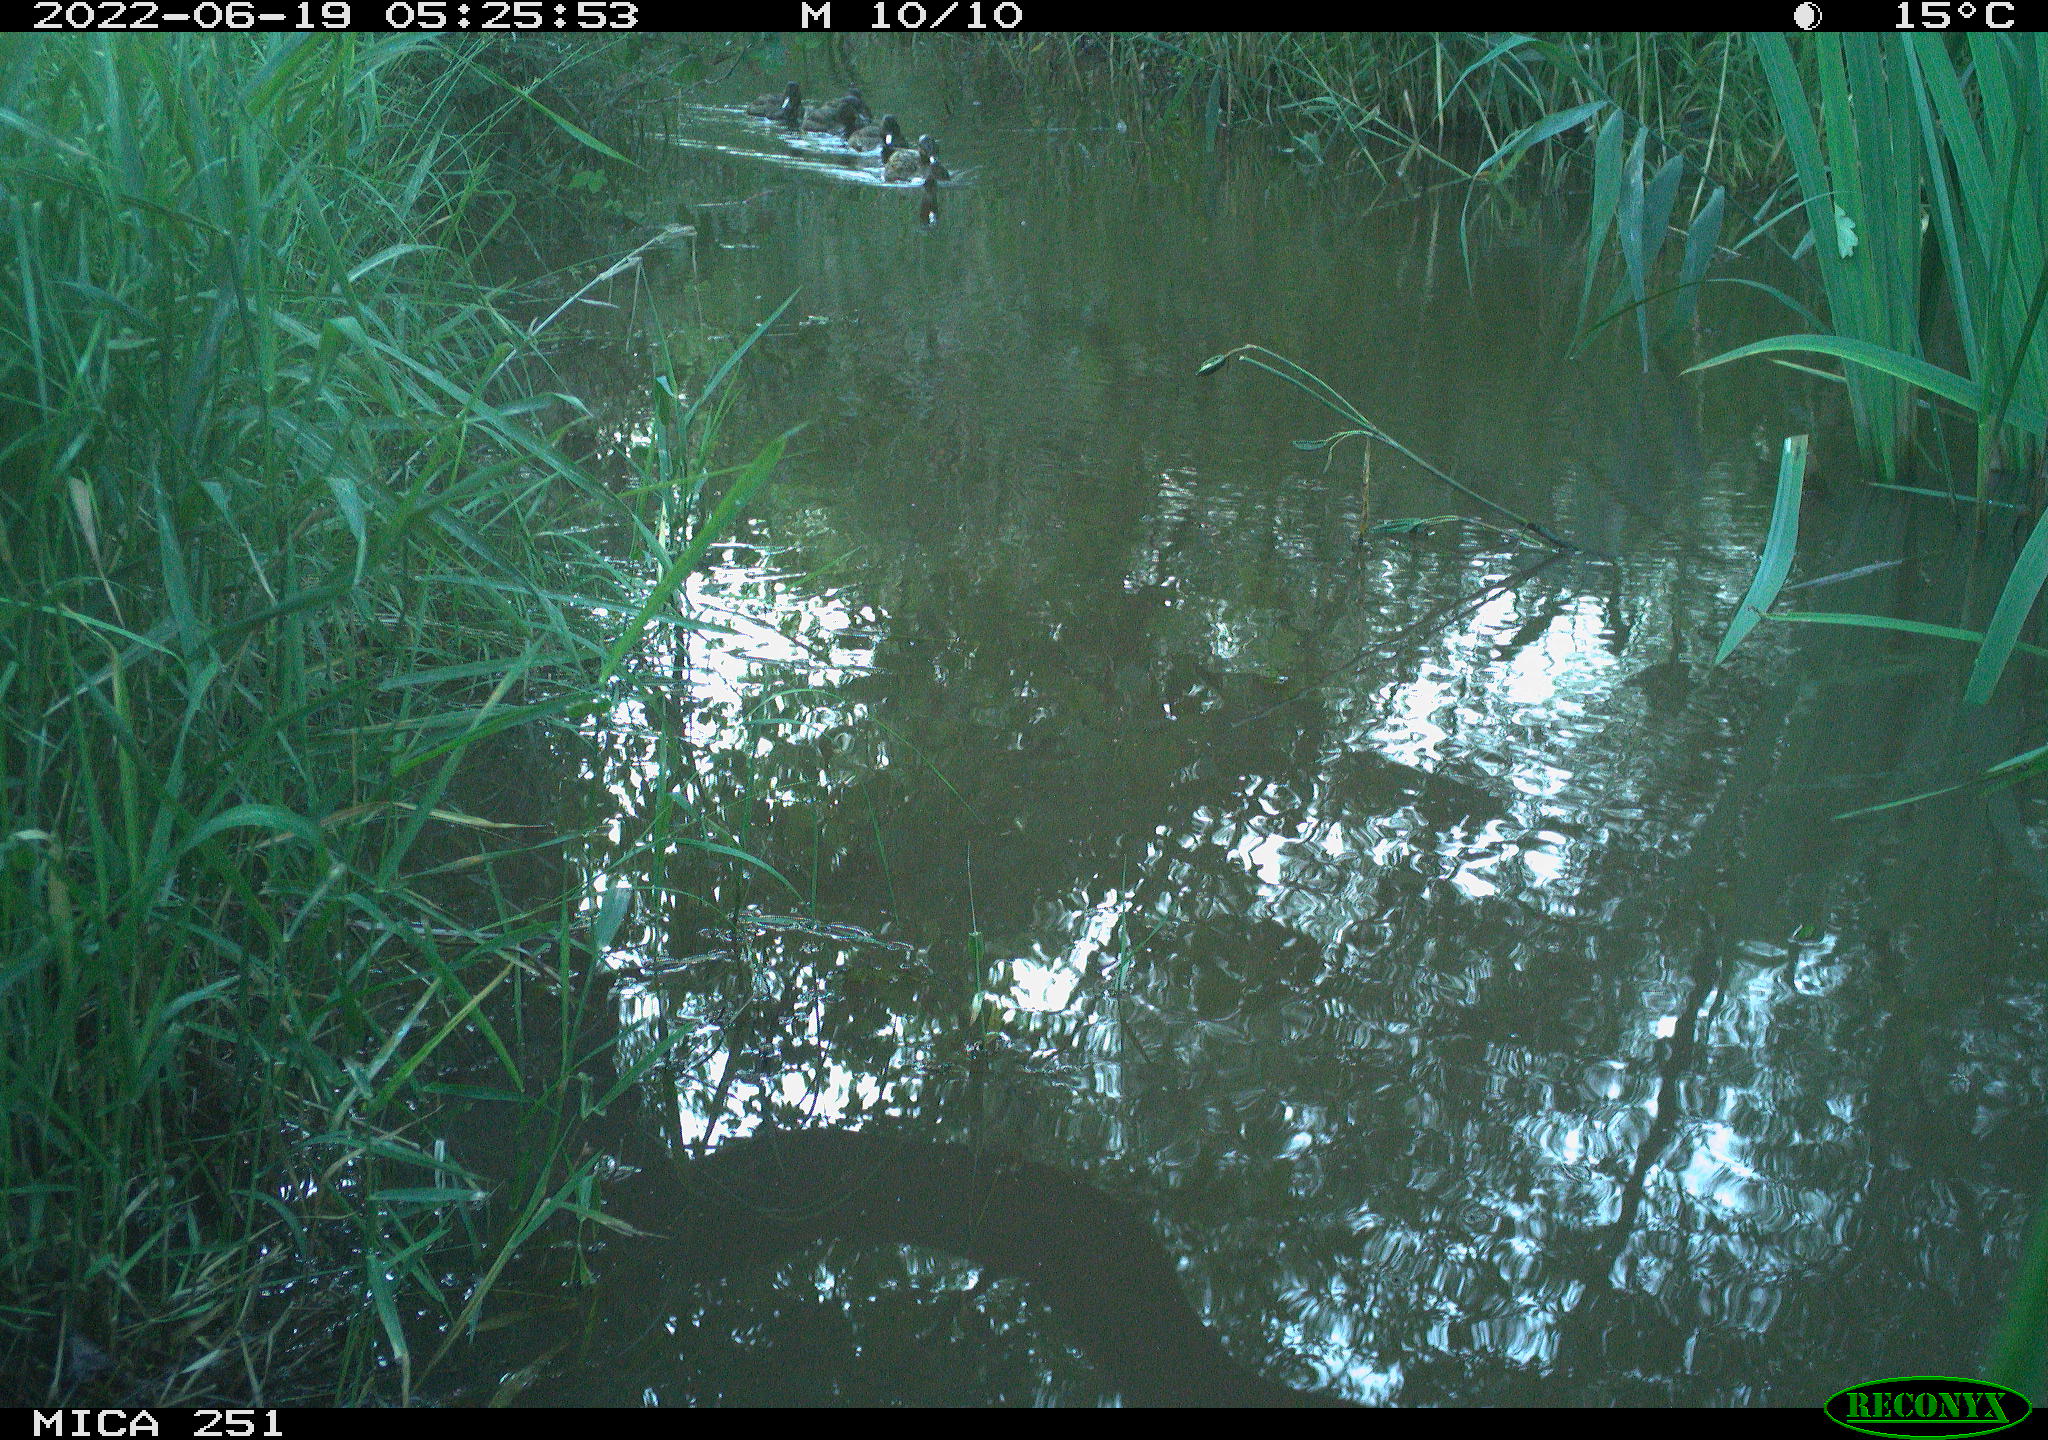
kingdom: Animalia
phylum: Chordata
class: Aves
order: Anseriformes
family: Anatidae
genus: Anas
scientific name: Anas platyrhynchos
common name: Mallard
